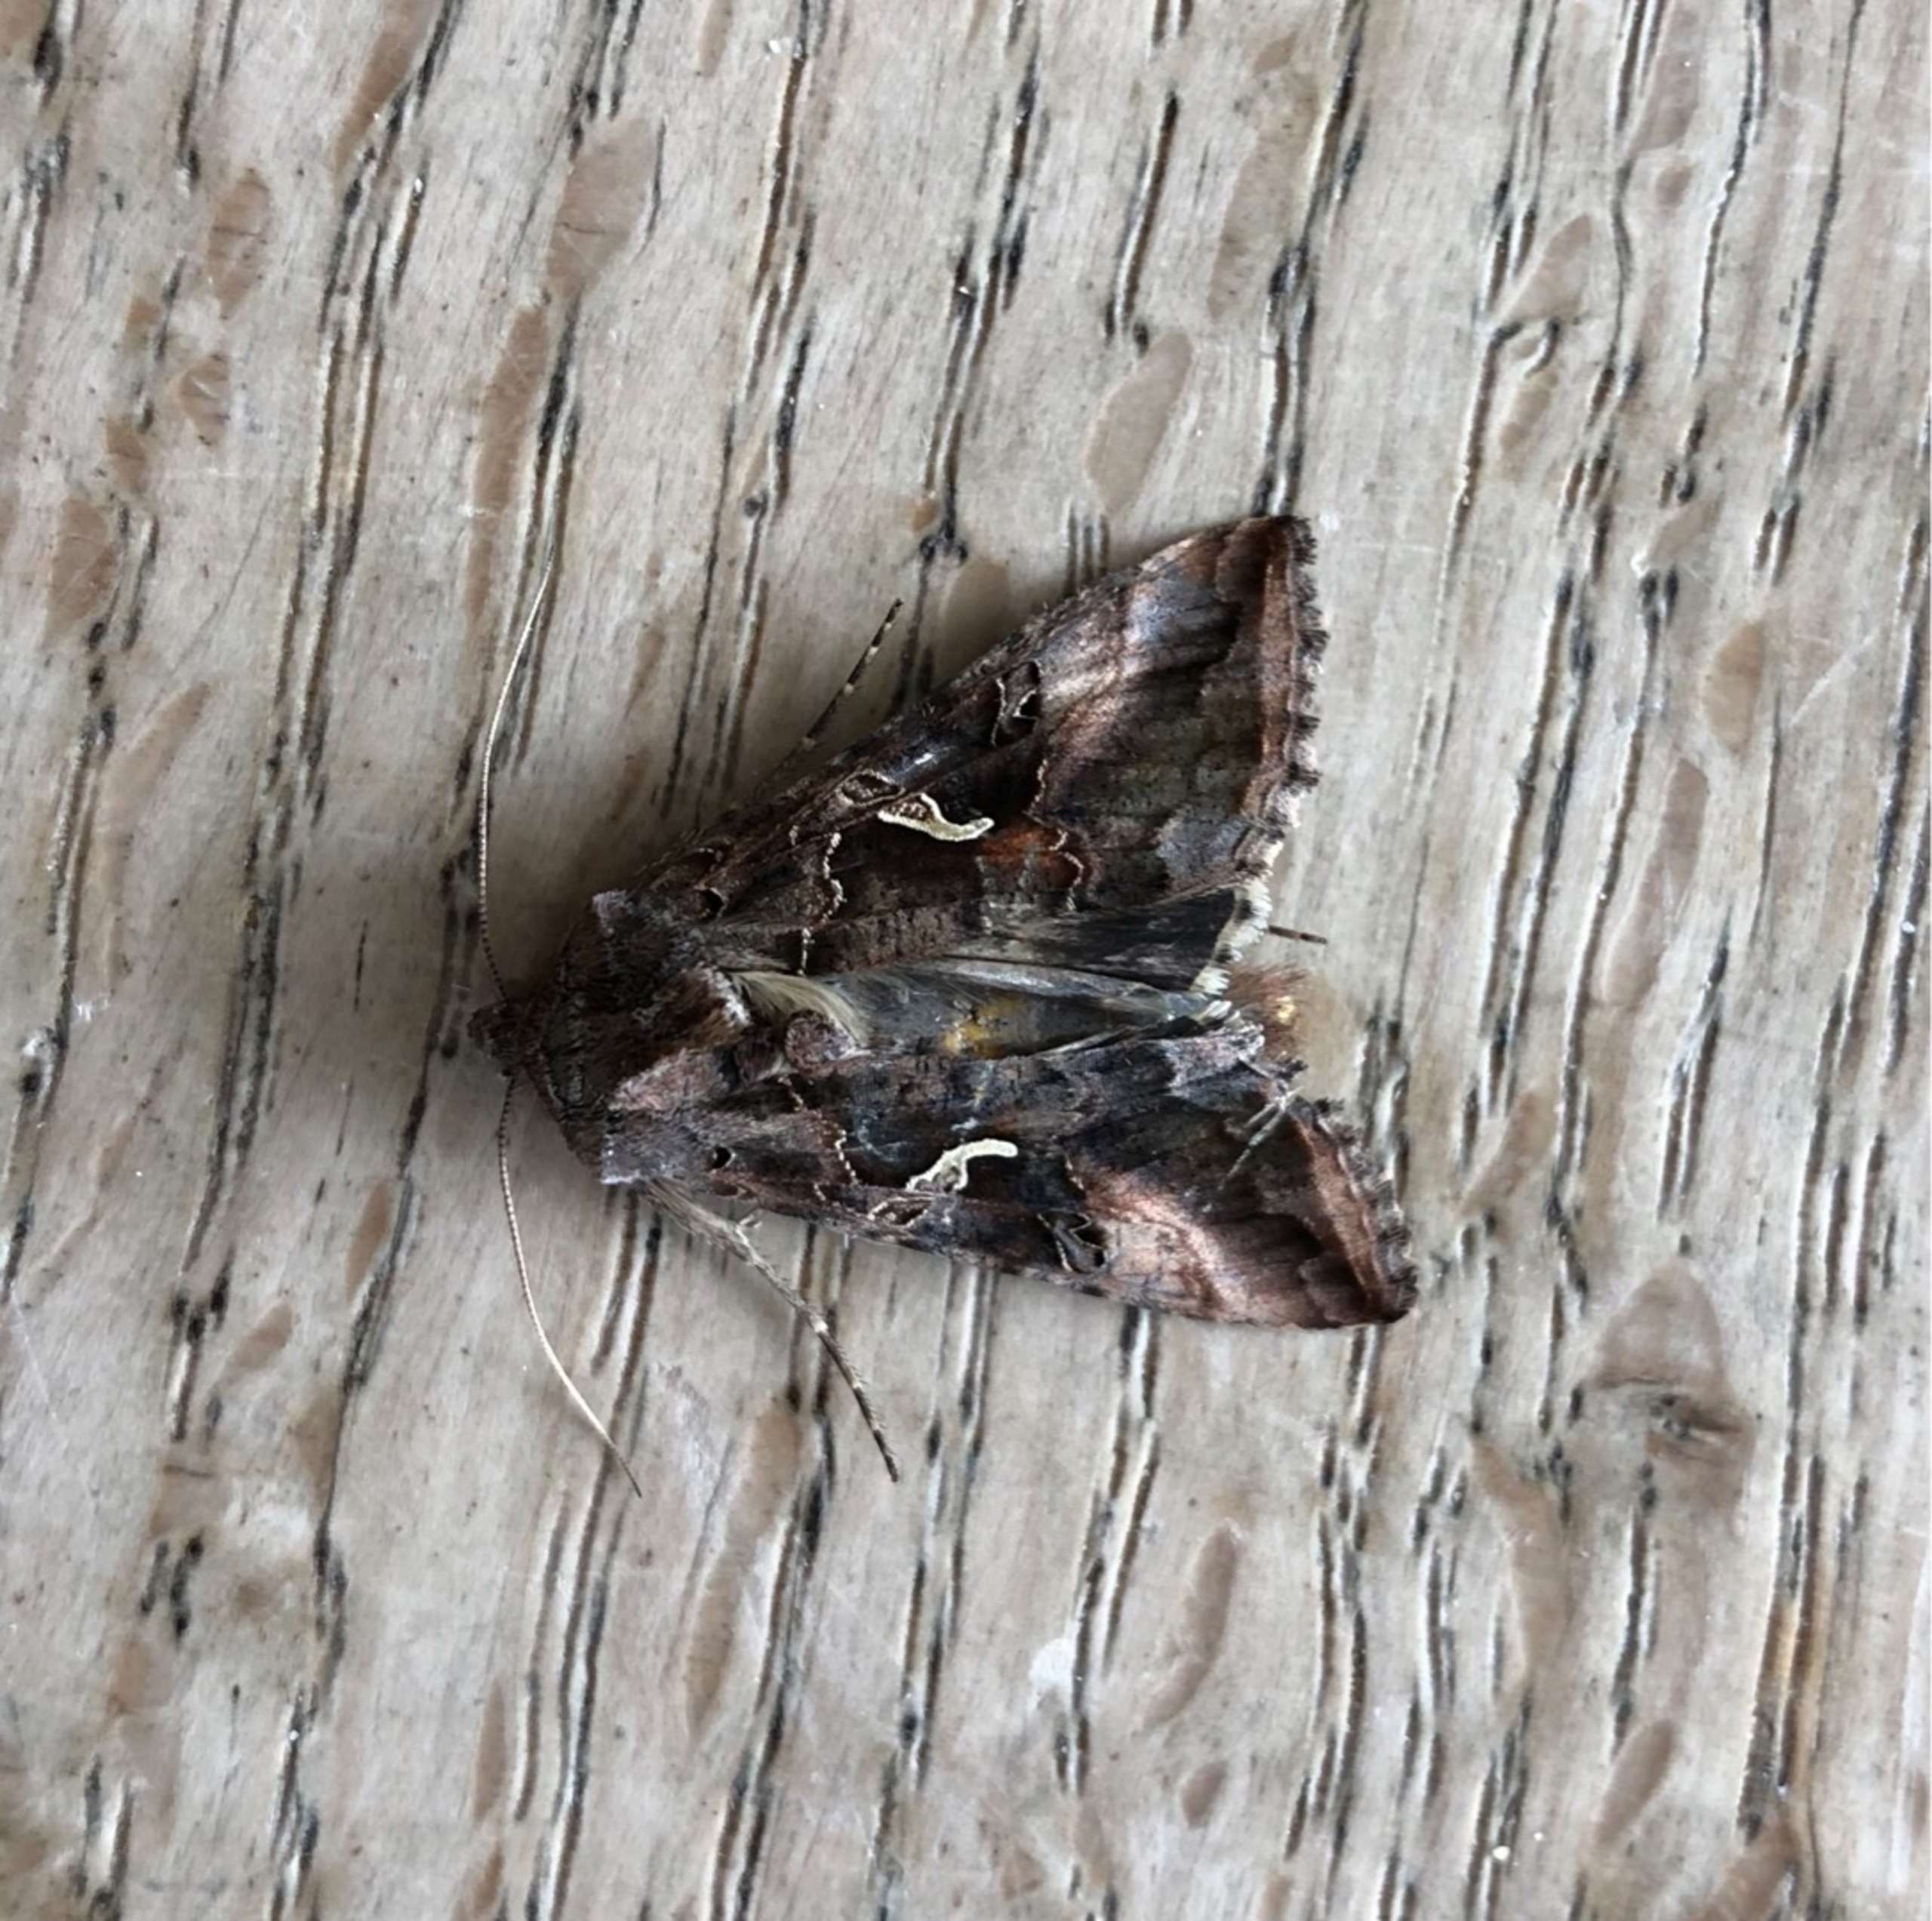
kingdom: Animalia
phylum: Arthropoda
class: Insecta
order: Lepidoptera
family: Noctuidae
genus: Autographa
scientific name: Autographa gamma
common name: Gammaugle
